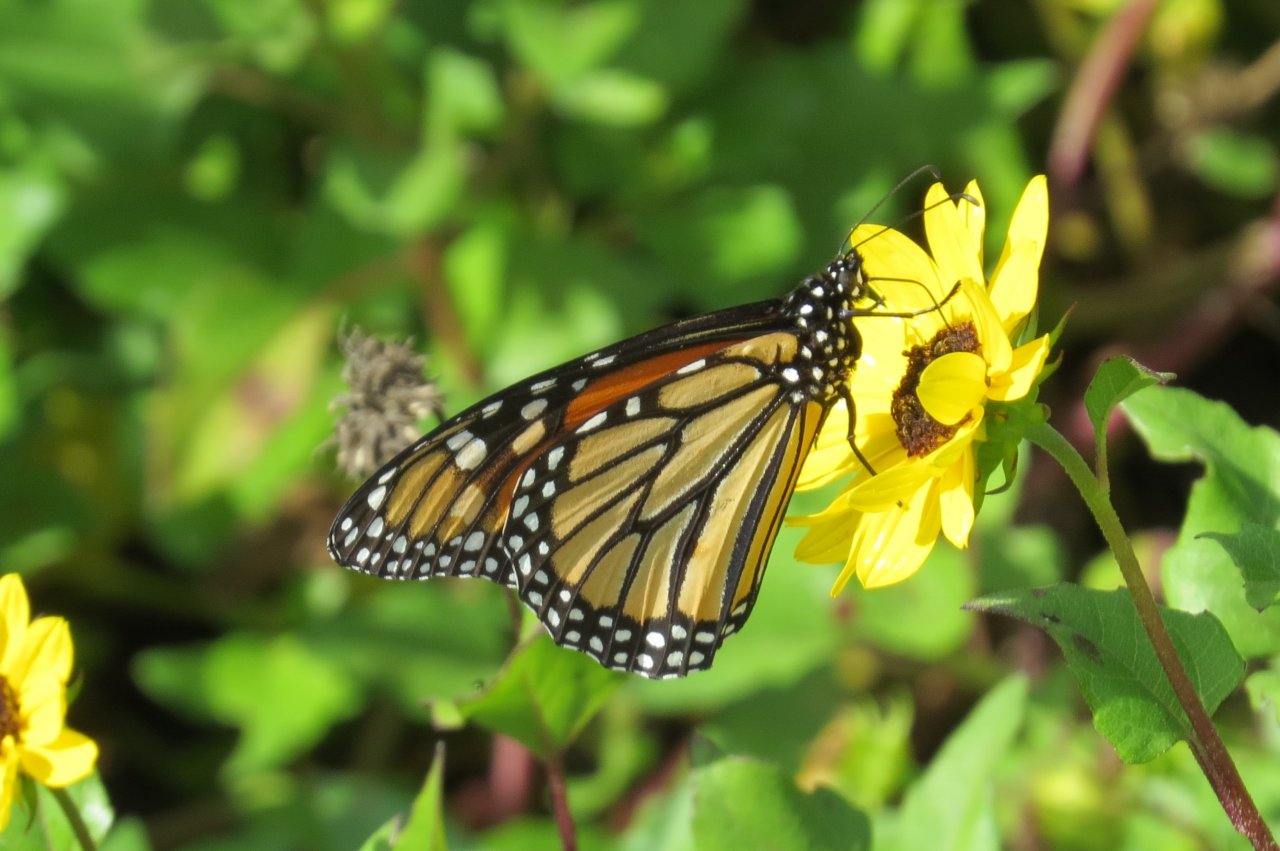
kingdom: Animalia
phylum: Arthropoda
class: Insecta
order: Lepidoptera
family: Nymphalidae
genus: Danaus
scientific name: Danaus plexippus
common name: Monarch
